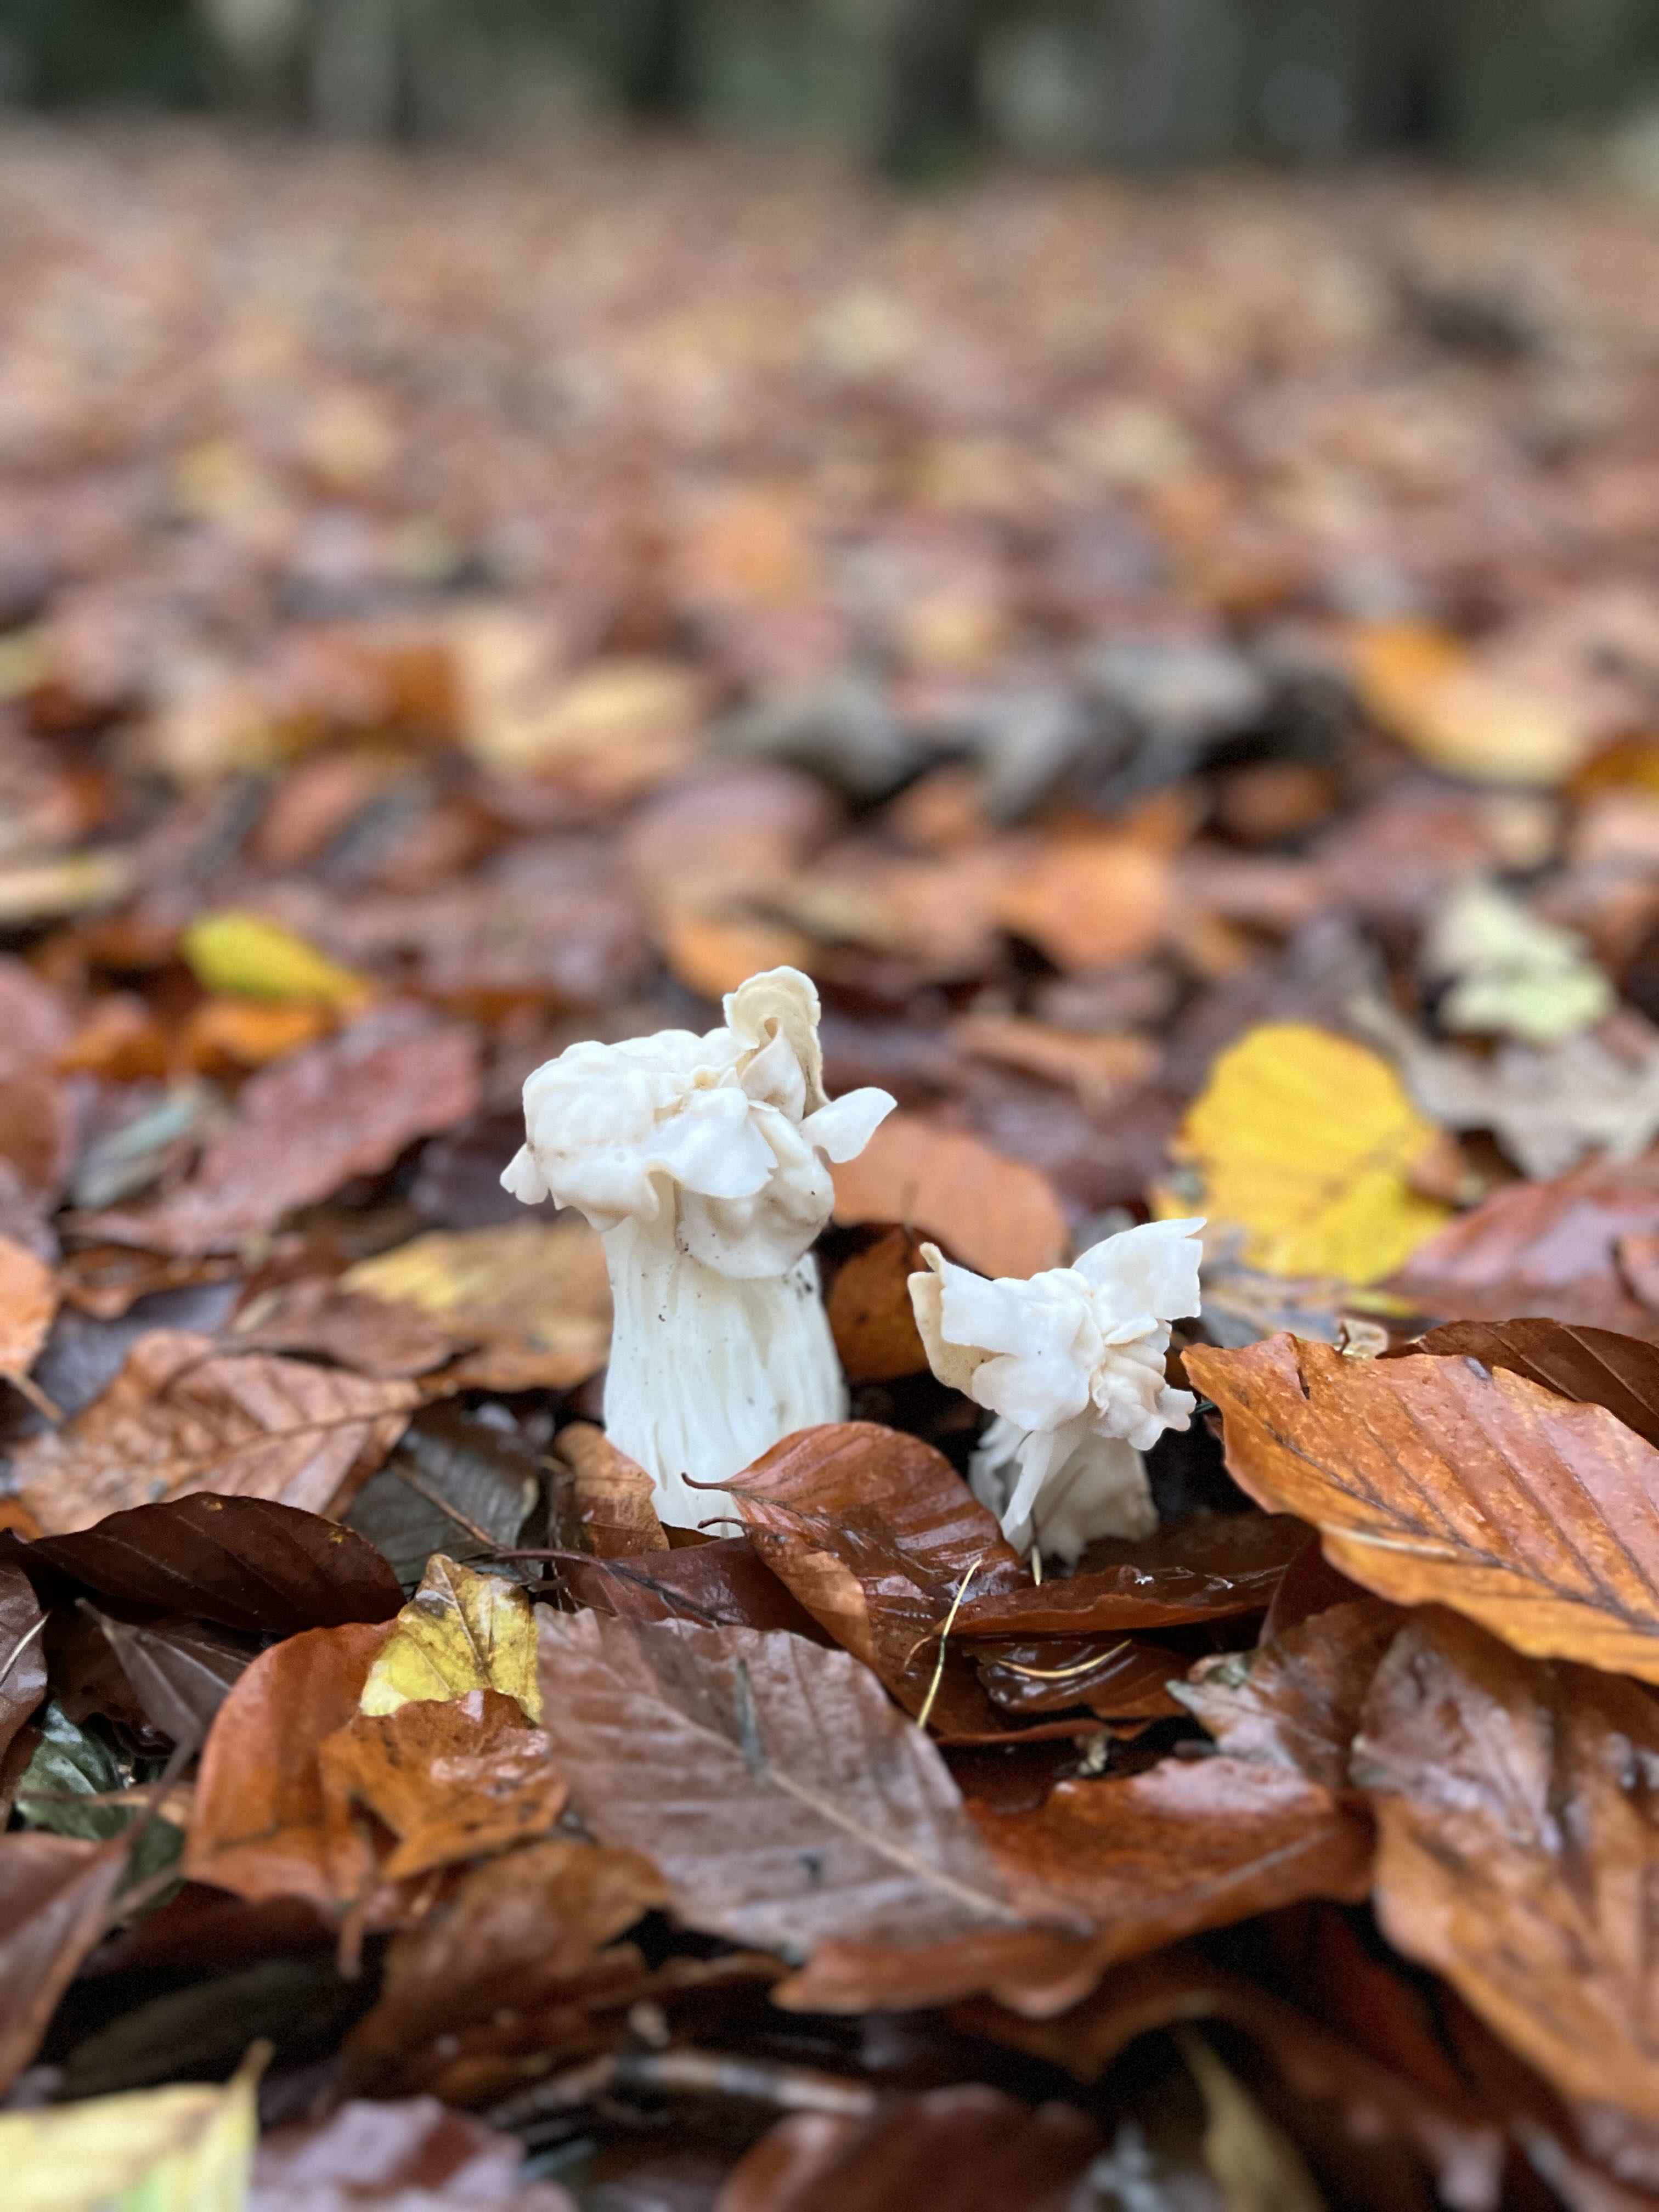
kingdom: Fungi
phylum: Ascomycota
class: Pezizomycetes
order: Pezizales
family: Helvellaceae
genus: Helvella
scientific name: Helvella crispa
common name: kruset foldhat
